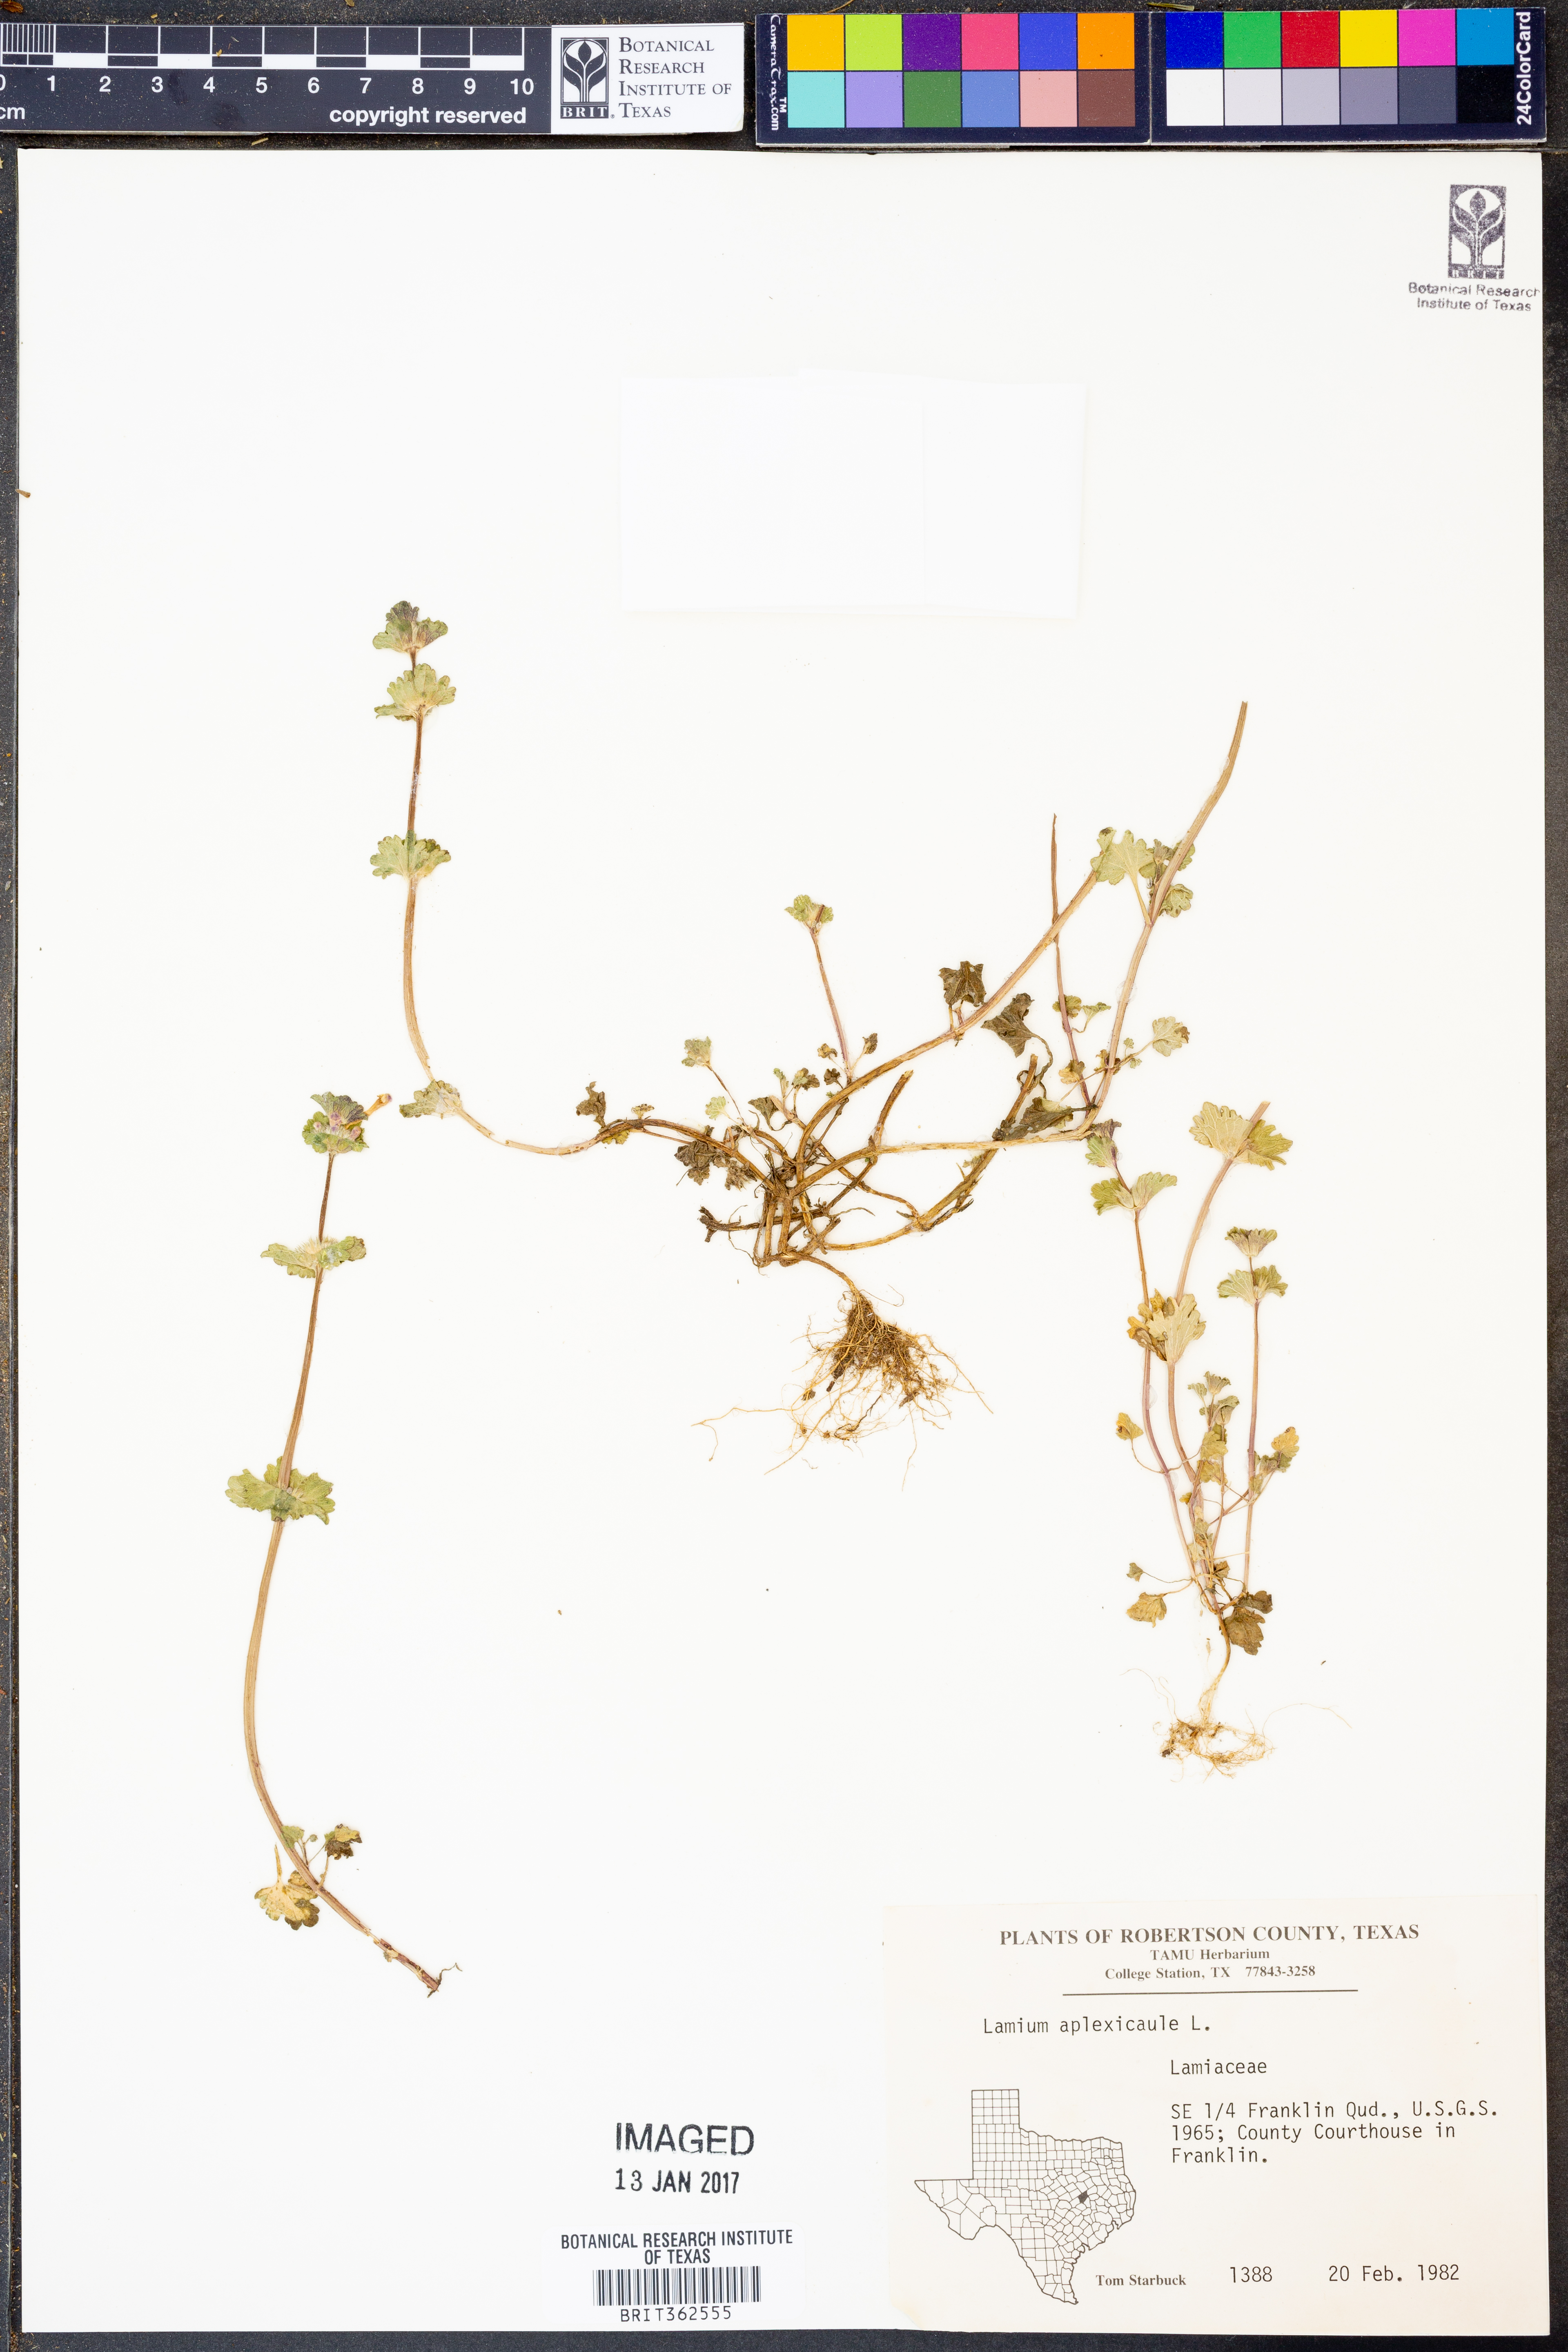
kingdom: Plantae
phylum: Tracheophyta
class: Magnoliopsida
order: Lamiales
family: Lamiaceae
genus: Lamium
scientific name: Lamium amplexicaule
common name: Henbit dead-nettle
